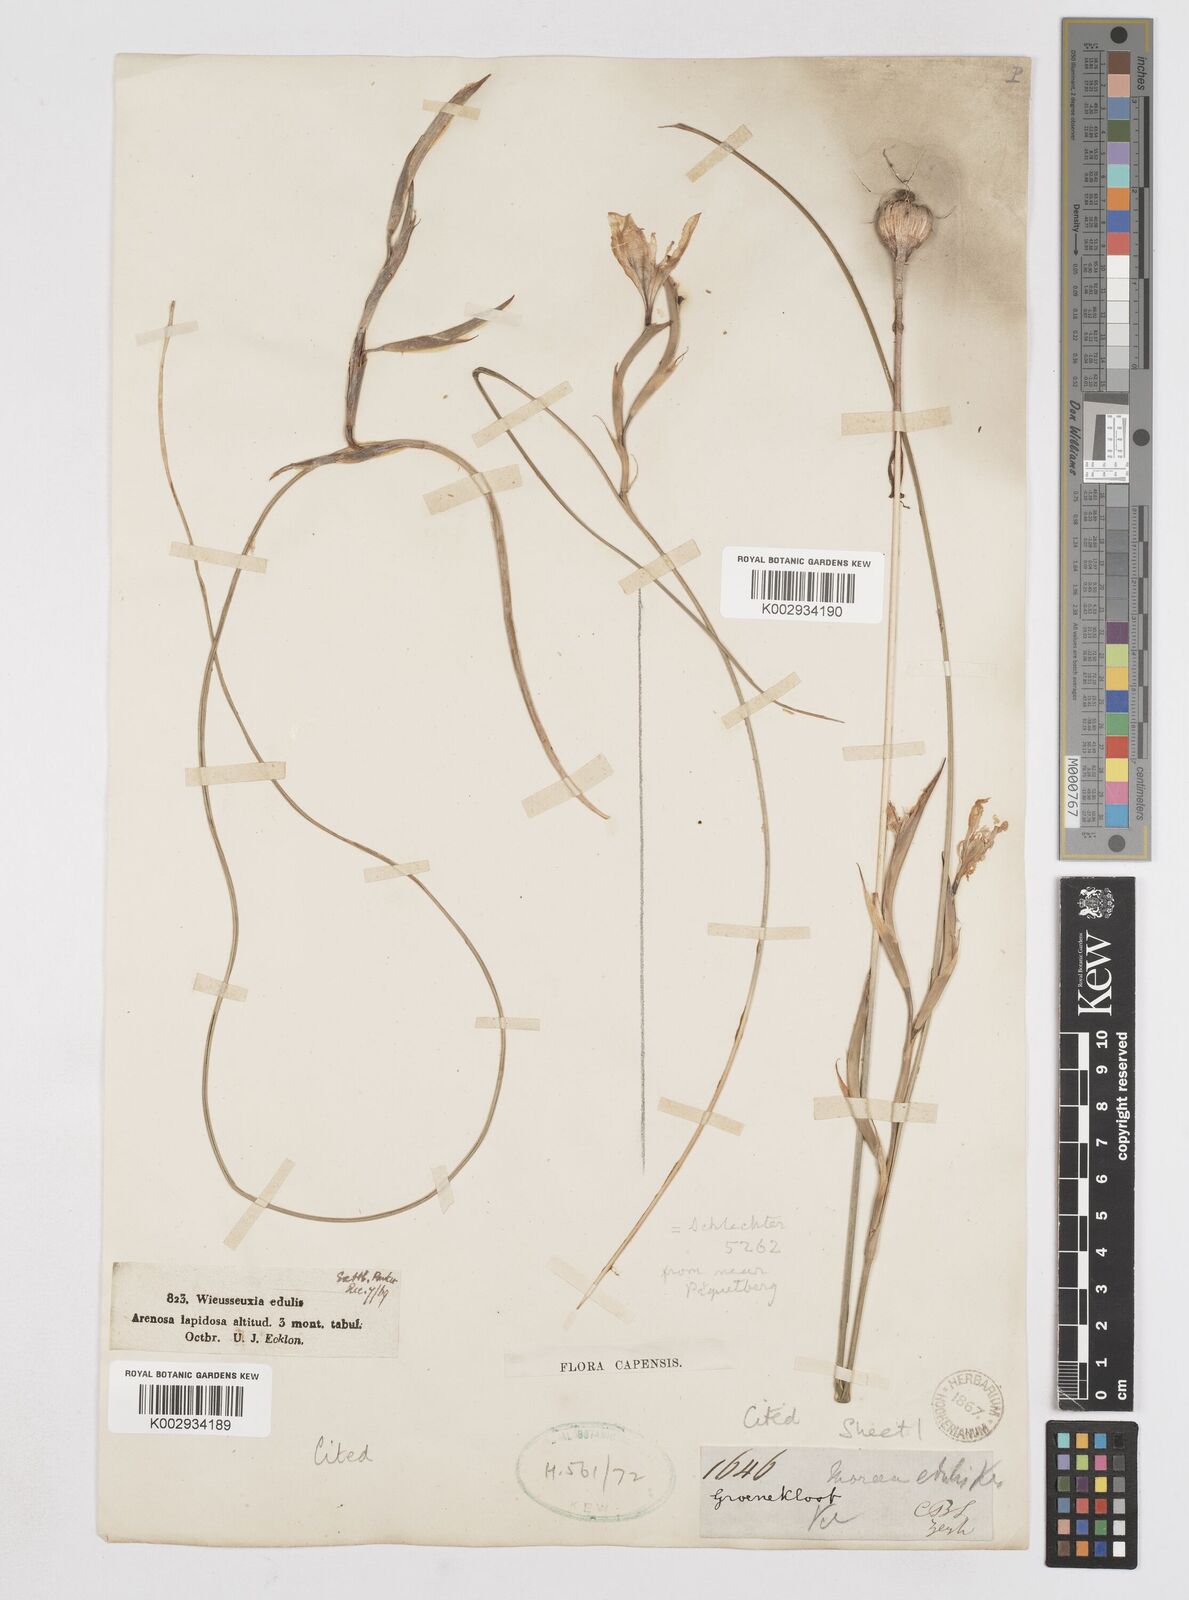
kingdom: Plantae
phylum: Tracheophyta
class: Liliopsida
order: Asparagales
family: Iridaceae
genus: Moraea
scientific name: Moraea fugax
